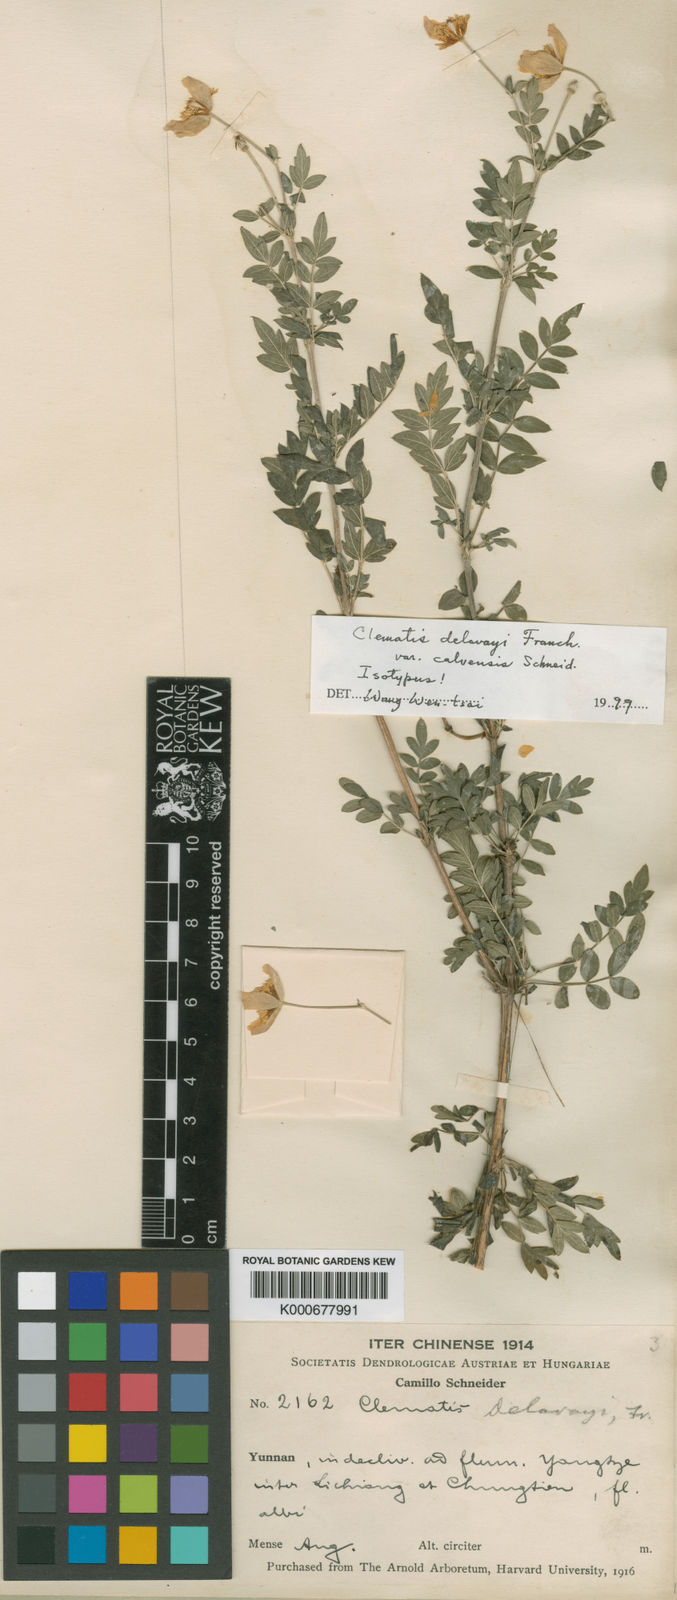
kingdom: Plantae
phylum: Tracheophyta
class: Magnoliopsida
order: Ranunculales
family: Ranunculaceae
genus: Clematis
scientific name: Clematis delavayi
